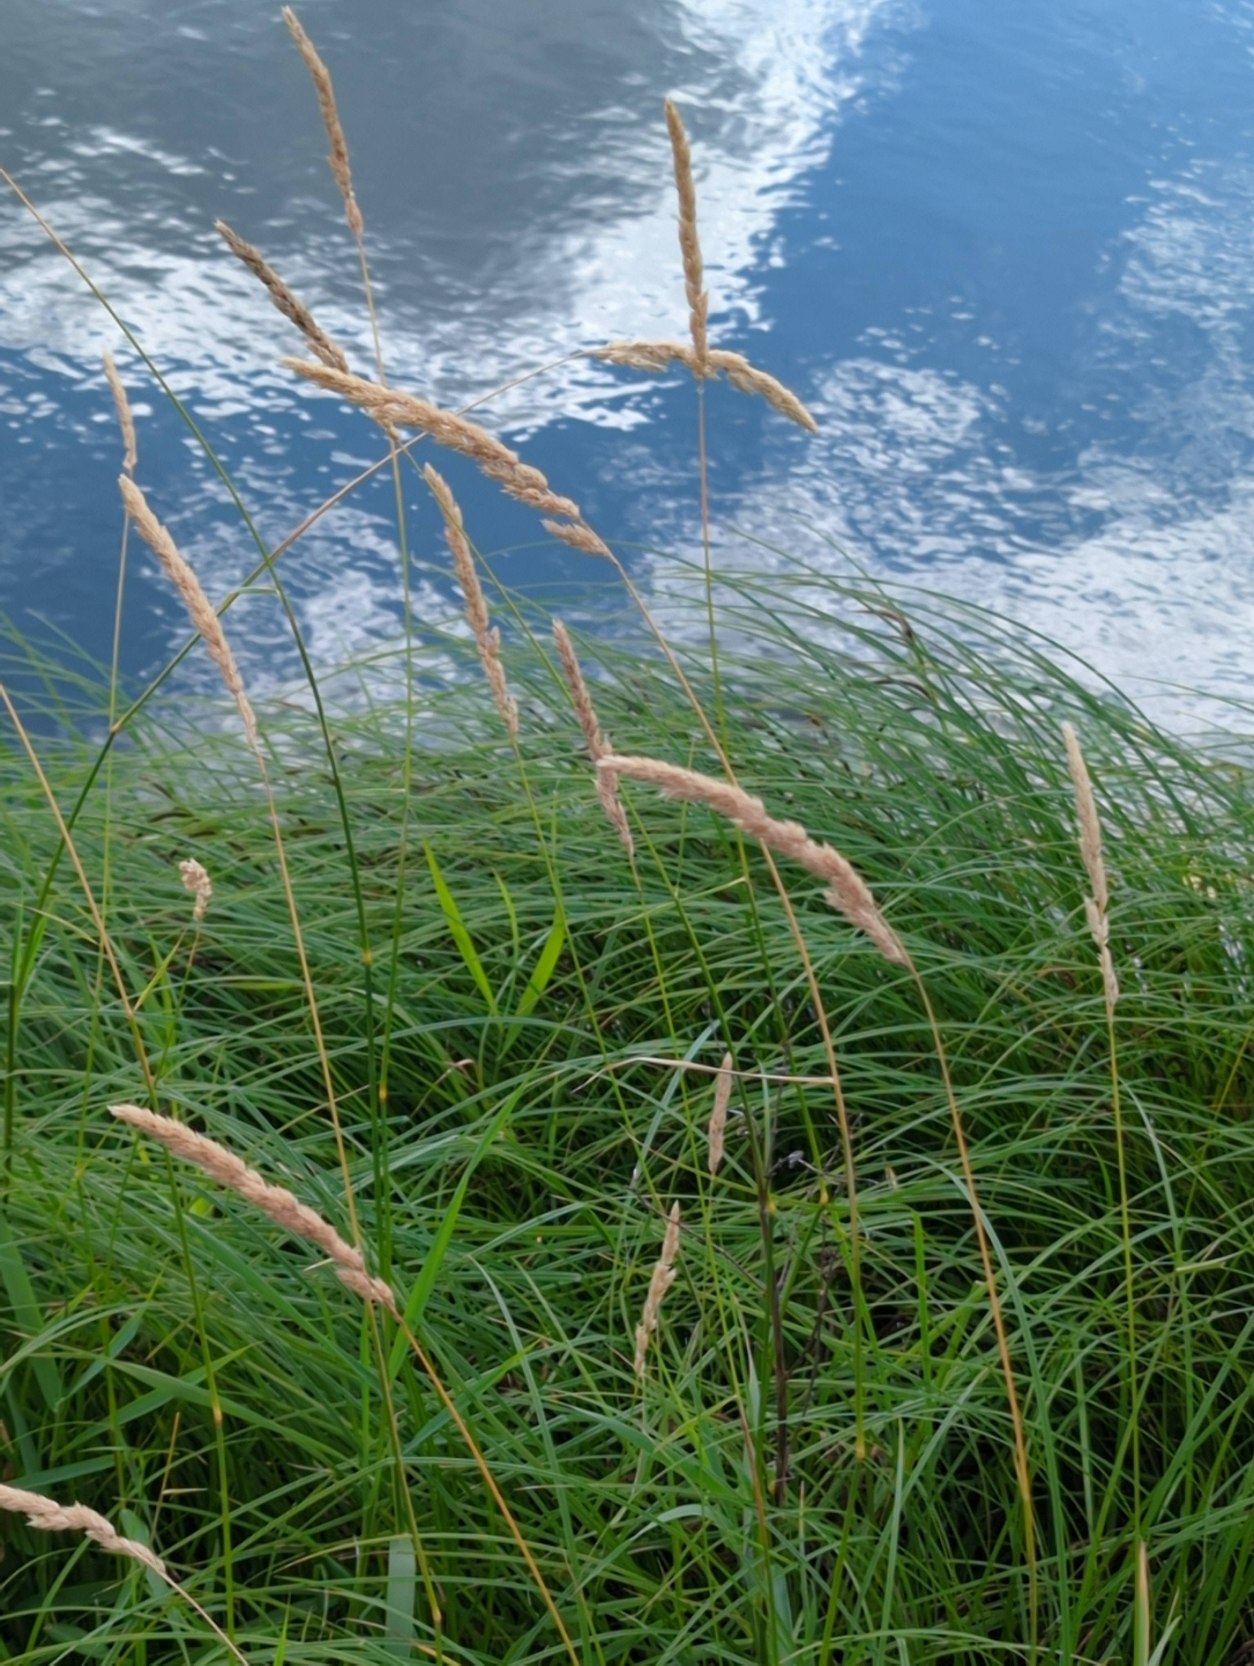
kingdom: Plantae
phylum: Tracheophyta
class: Liliopsida
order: Poales
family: Poaceae
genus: Phalaris
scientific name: Phalaris arundinacea
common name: Rørgræs
